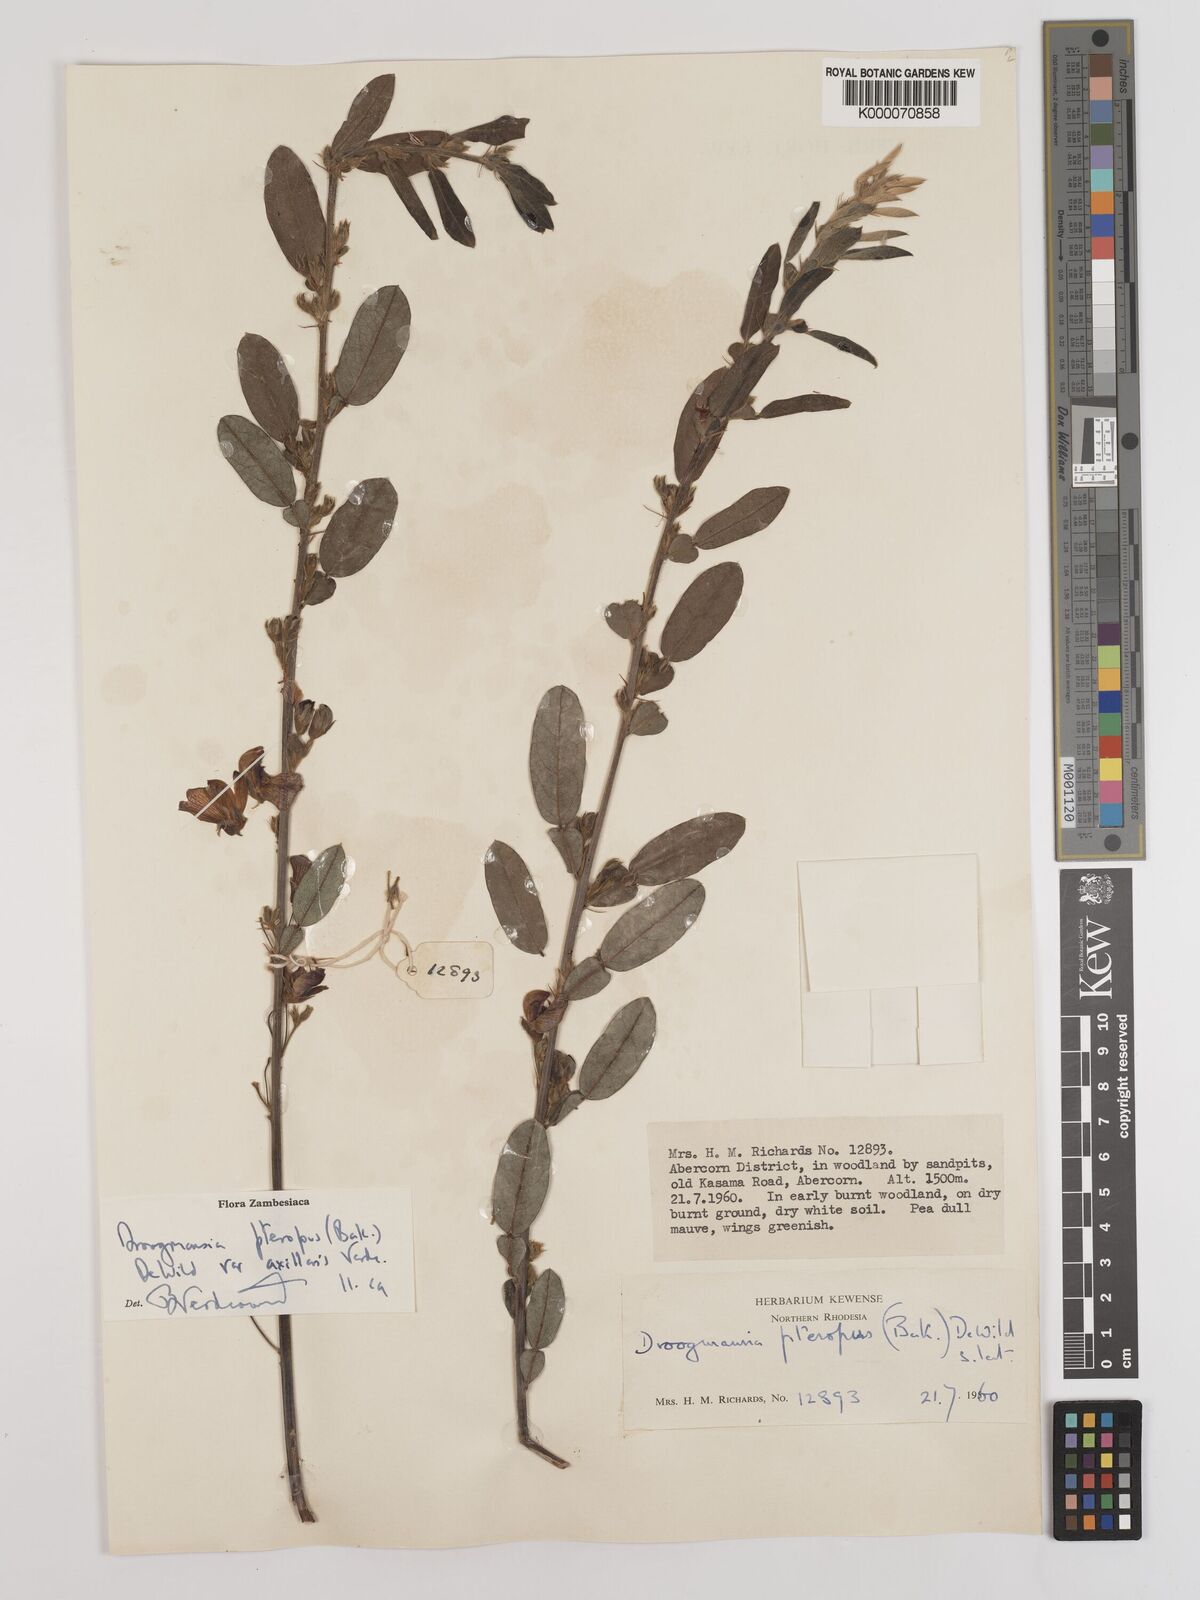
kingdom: Plantae
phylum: Tracheophyta
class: Magnoliopsida
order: Fabales
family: Fabaceae
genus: Droogmansia
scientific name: Droogmansia pteropus
